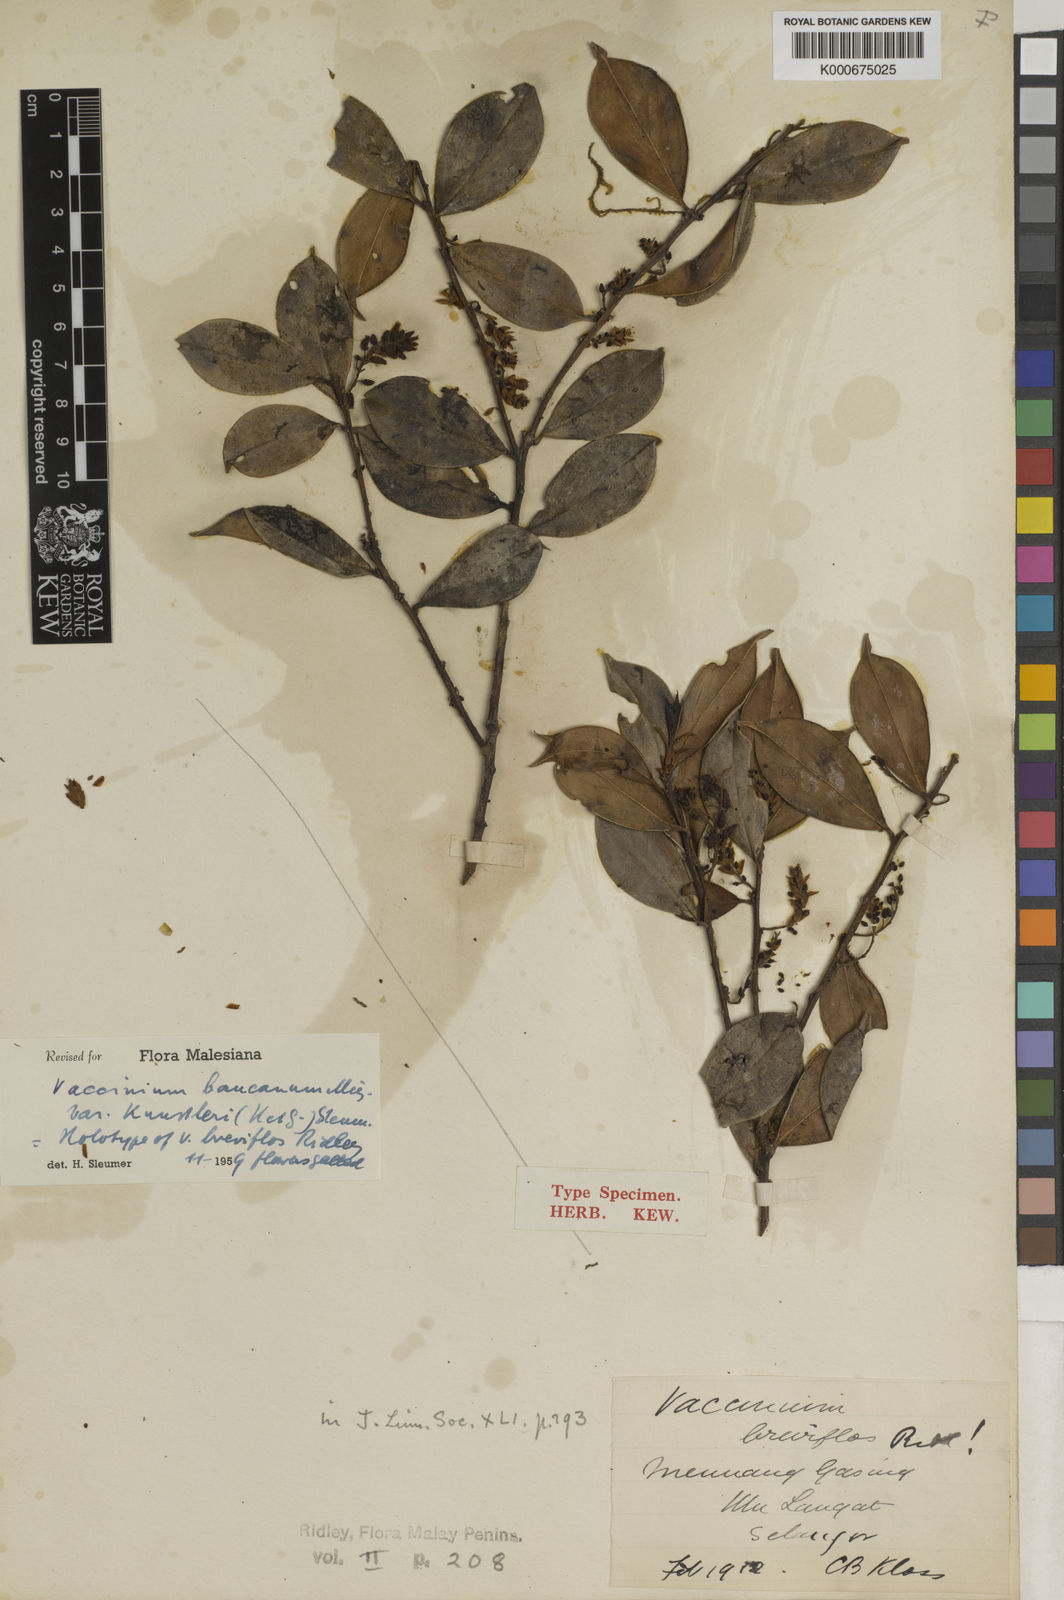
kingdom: Plantae
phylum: Tracheophyta
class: Magnoliopsida
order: Ericales
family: Ericaceae
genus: Vaccinium
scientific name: Vaccinium bancanum
